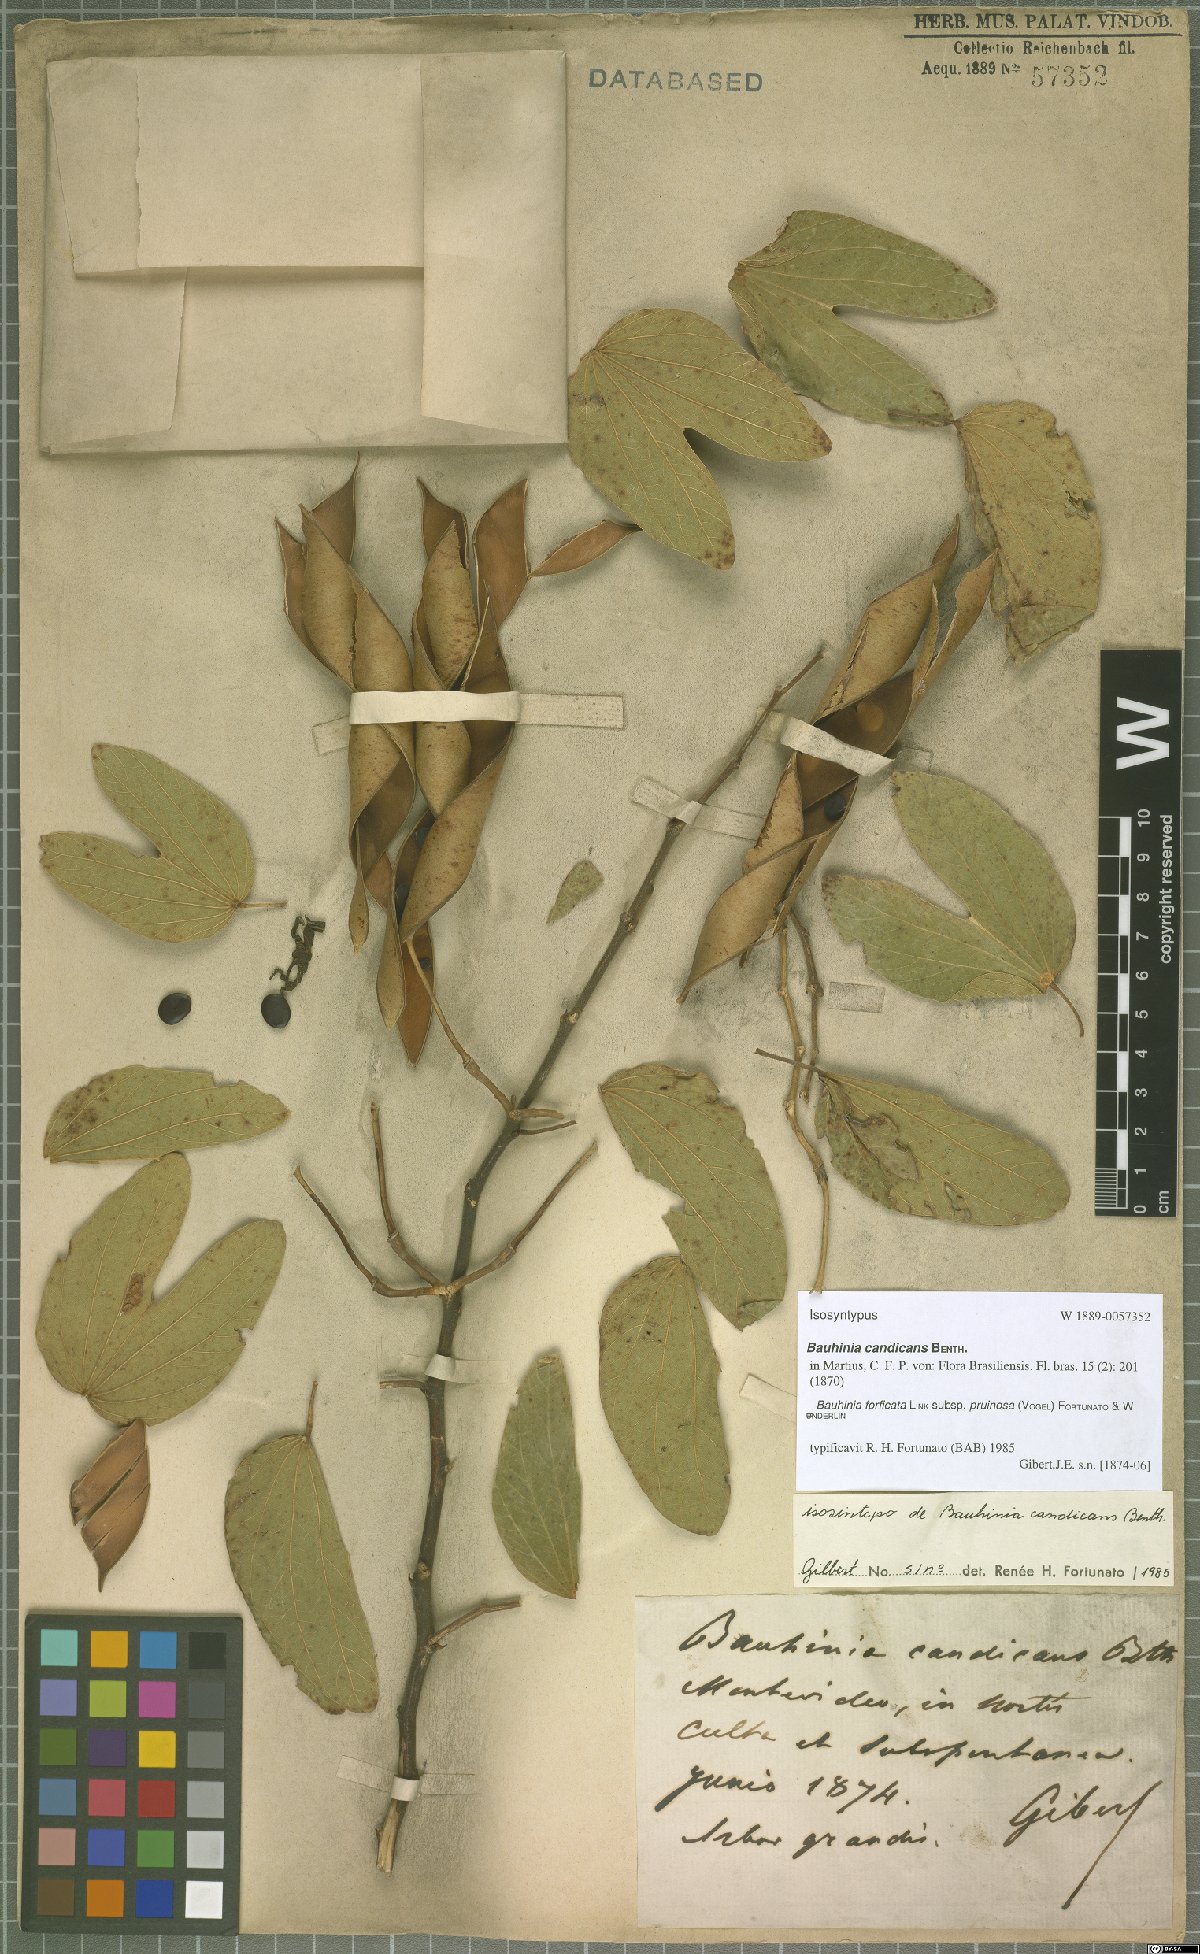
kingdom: Plantae
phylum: Tracheophyta
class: Magnoliopsida
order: Fabales
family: Fabaceae
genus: Bauhinia
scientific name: Bauhinia forficata
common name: Orchid tree
